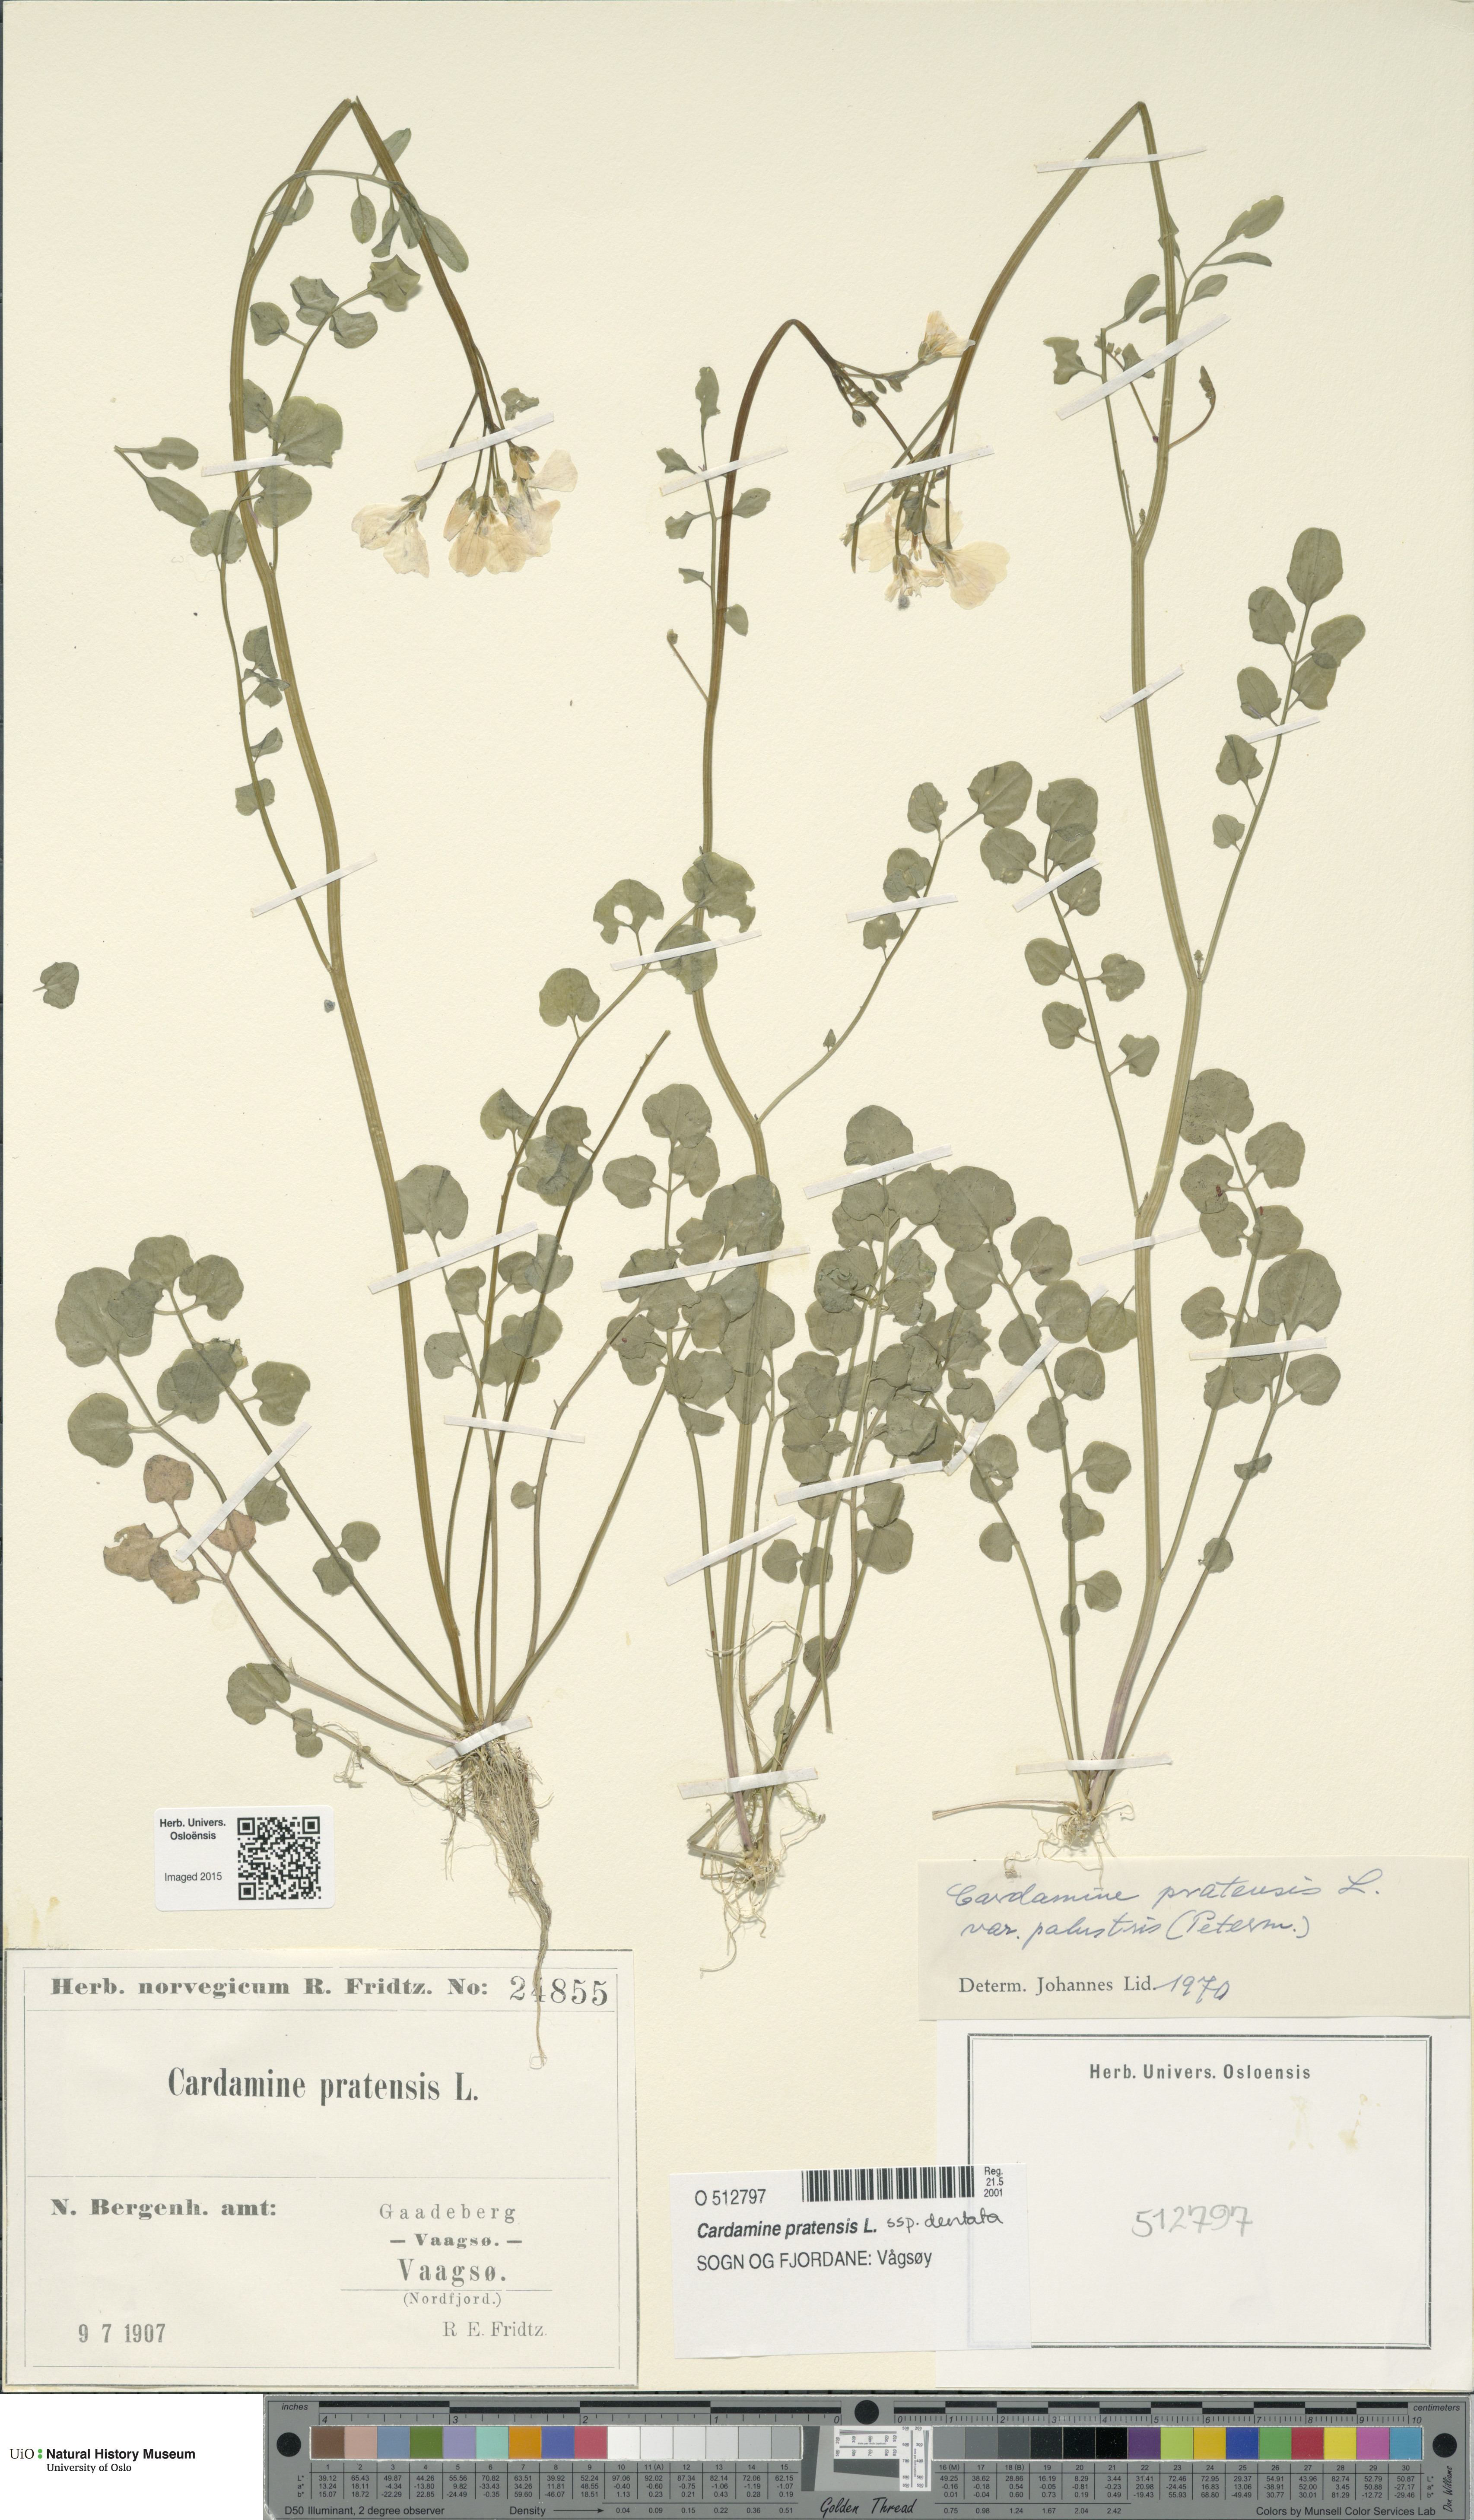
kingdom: Plantae
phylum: Tracheophyta
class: Magnoliopsida
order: Brassicales
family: Brassicaceae
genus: Cardamine
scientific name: Cardamine dentata
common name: Toothed bittercress
